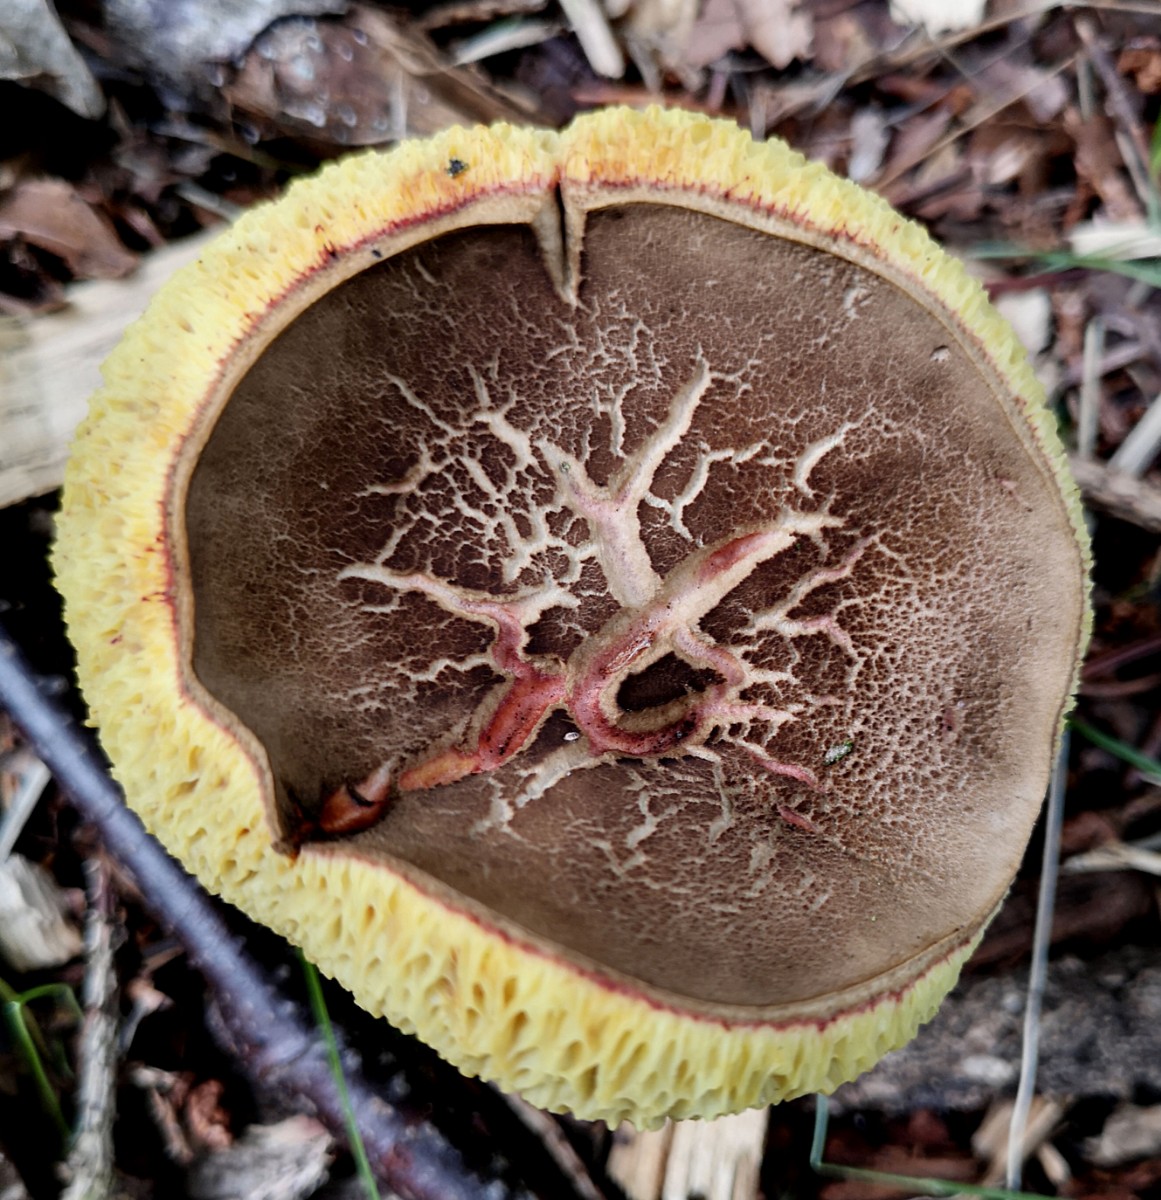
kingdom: Fungi
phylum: Basidiomycota
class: Agaricomycetes
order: Boletales
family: Boletaceae
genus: Xerocomellus
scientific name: Xerocomellus porosporus
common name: hvidsprukken rørhat
